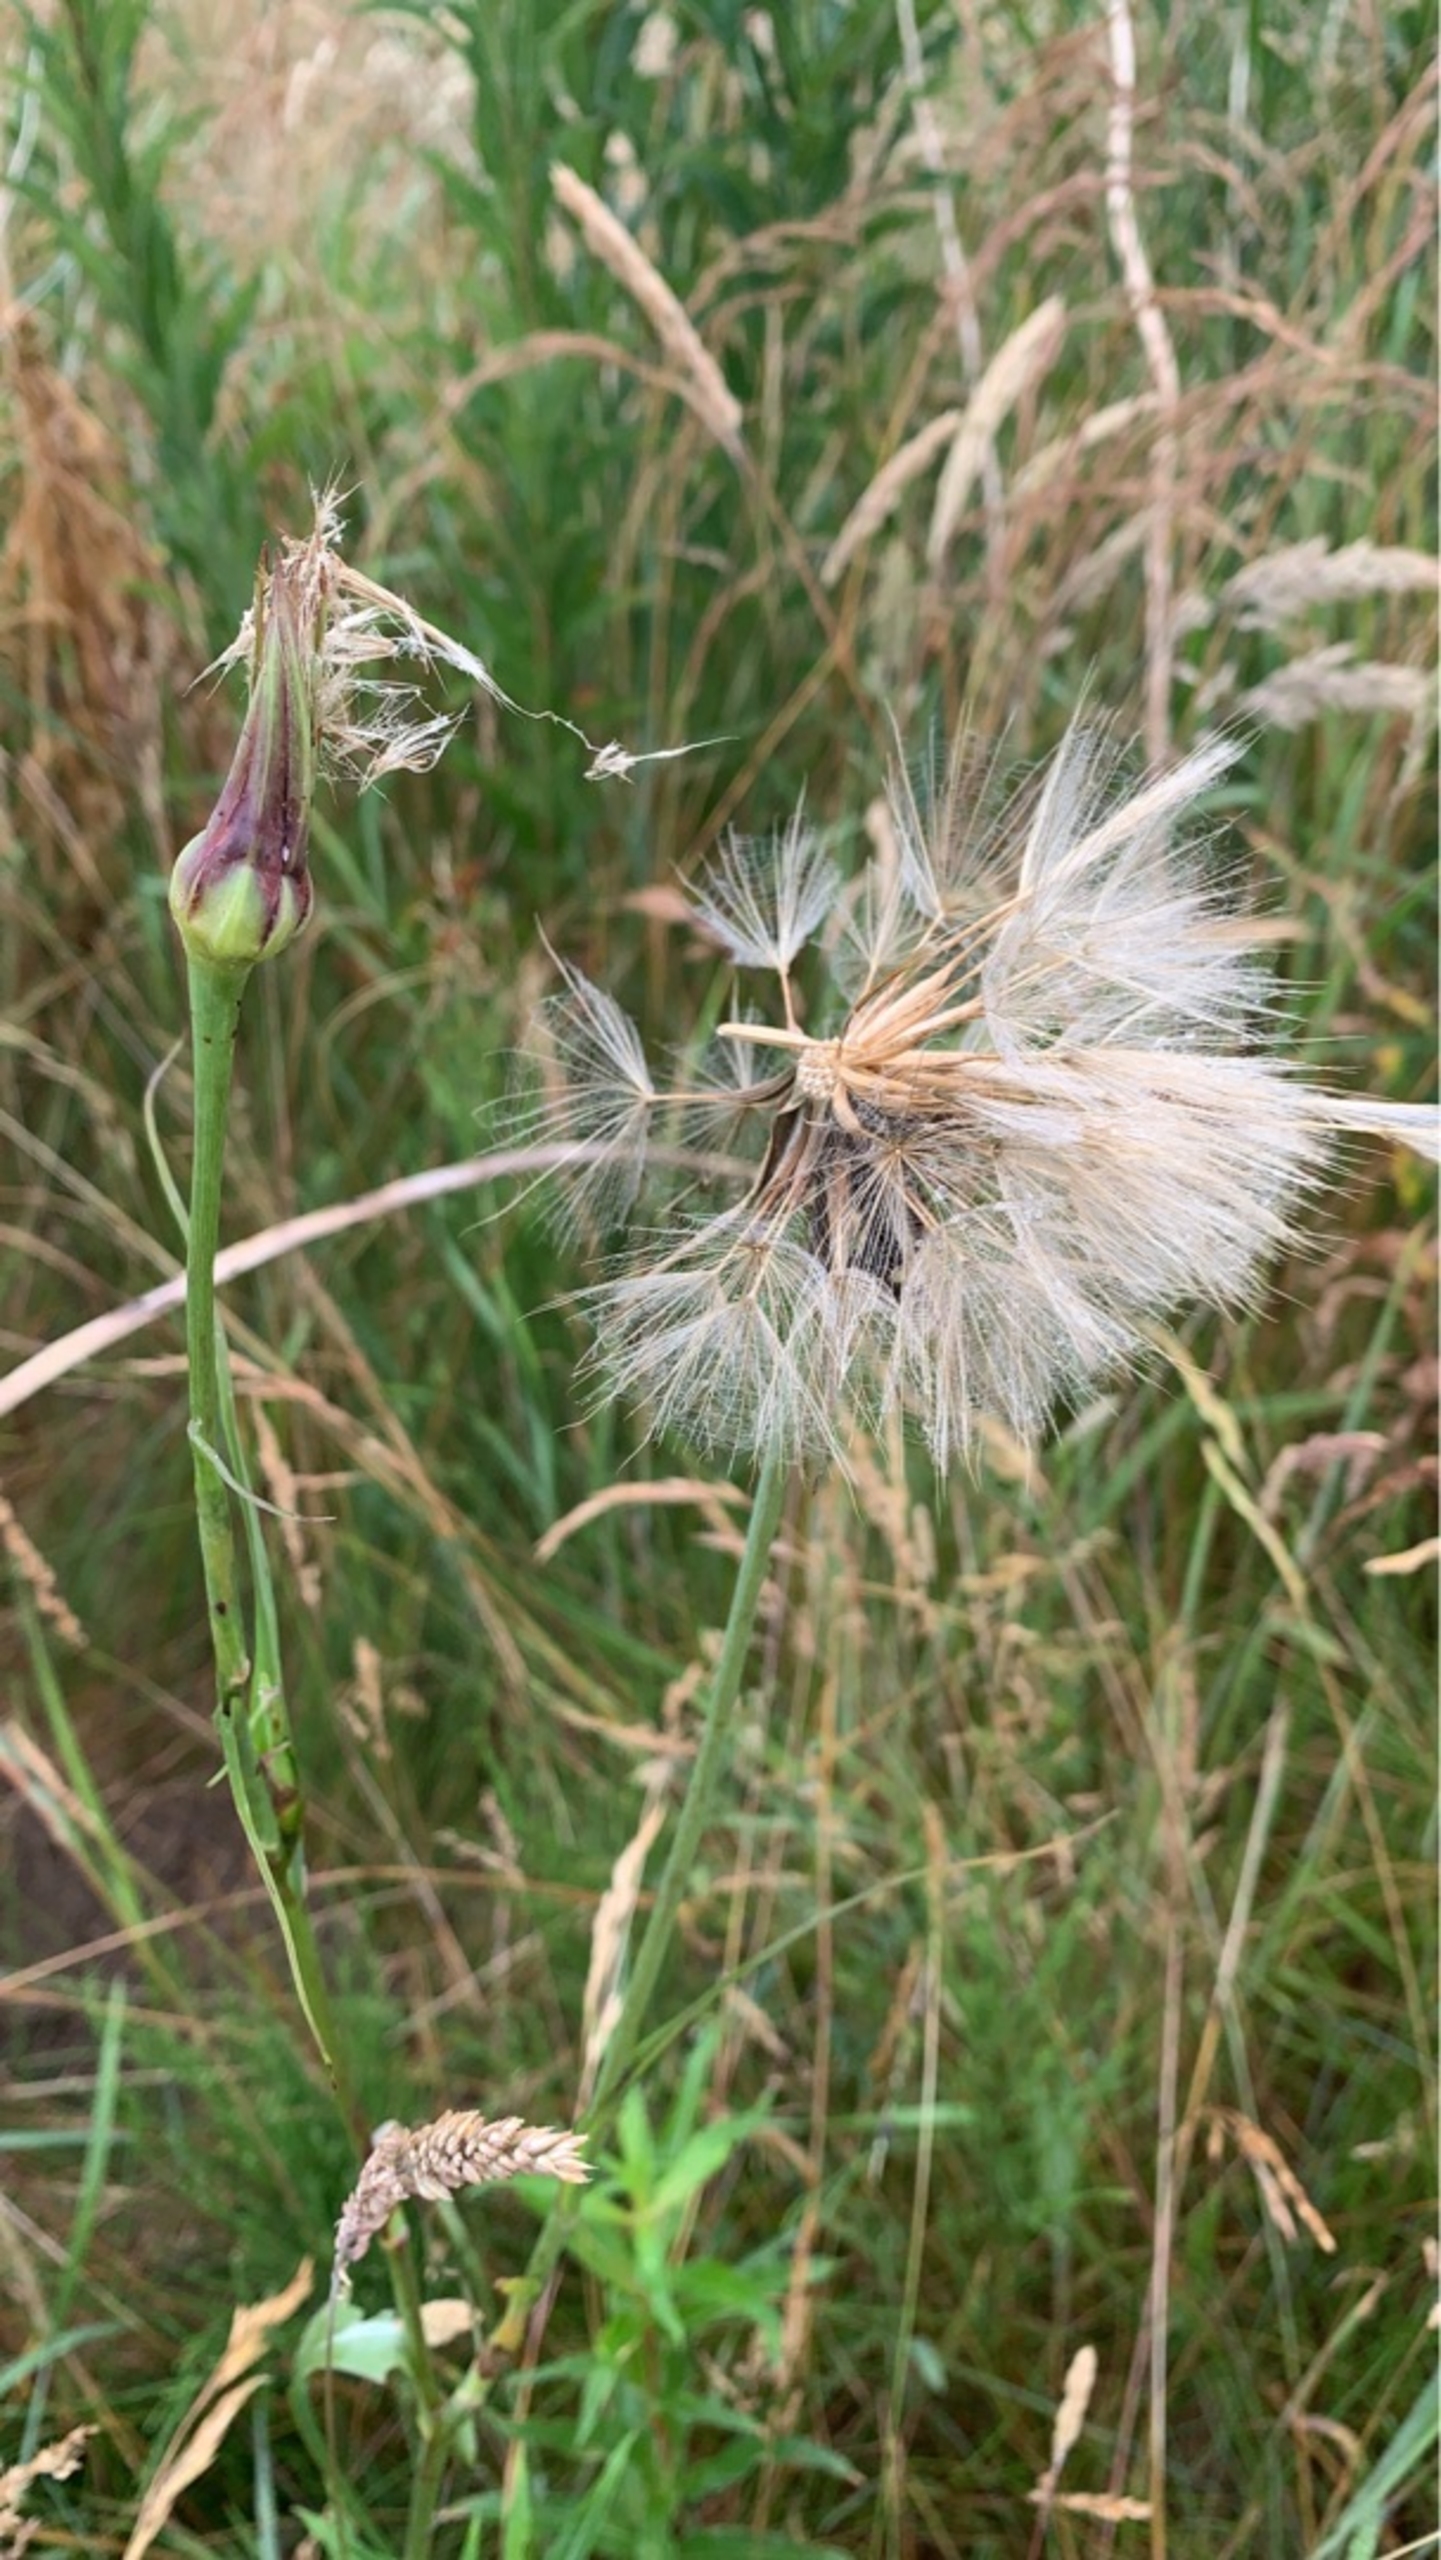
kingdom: Plantae
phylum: Tracheophyta
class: Magnoliopsida
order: Asterales
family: Asteraceae
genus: Tragopogon
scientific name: Tragopogon
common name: Gedeskægslægten
